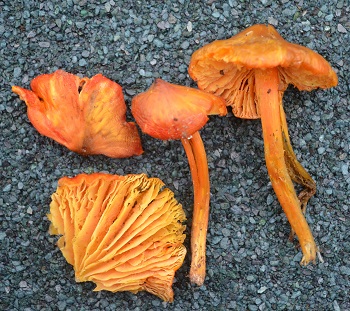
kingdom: Fungi
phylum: Basidiomycota
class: Agaricomycetes
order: Agaricales
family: Hygrophoraceae
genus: Hygrocybe
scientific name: Hygrocybe acutoconica
